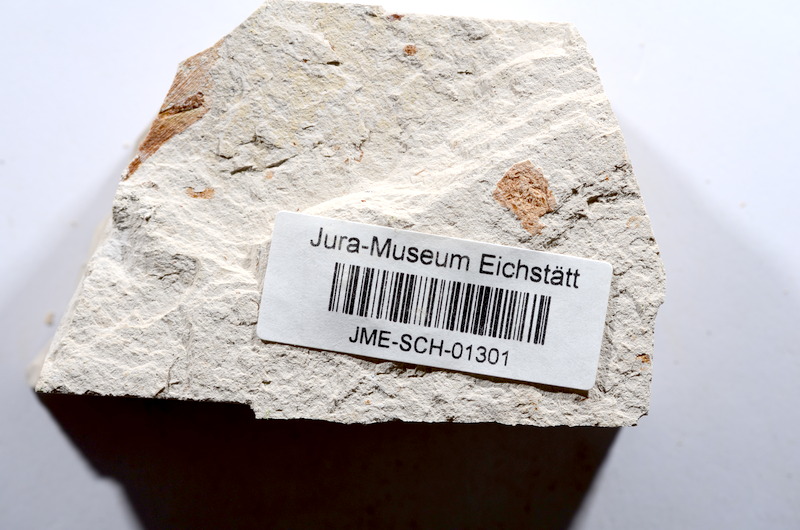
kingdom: Animalia
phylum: Chordata
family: Ascalaboidae
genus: Tharsis
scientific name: Tharsis dubius
